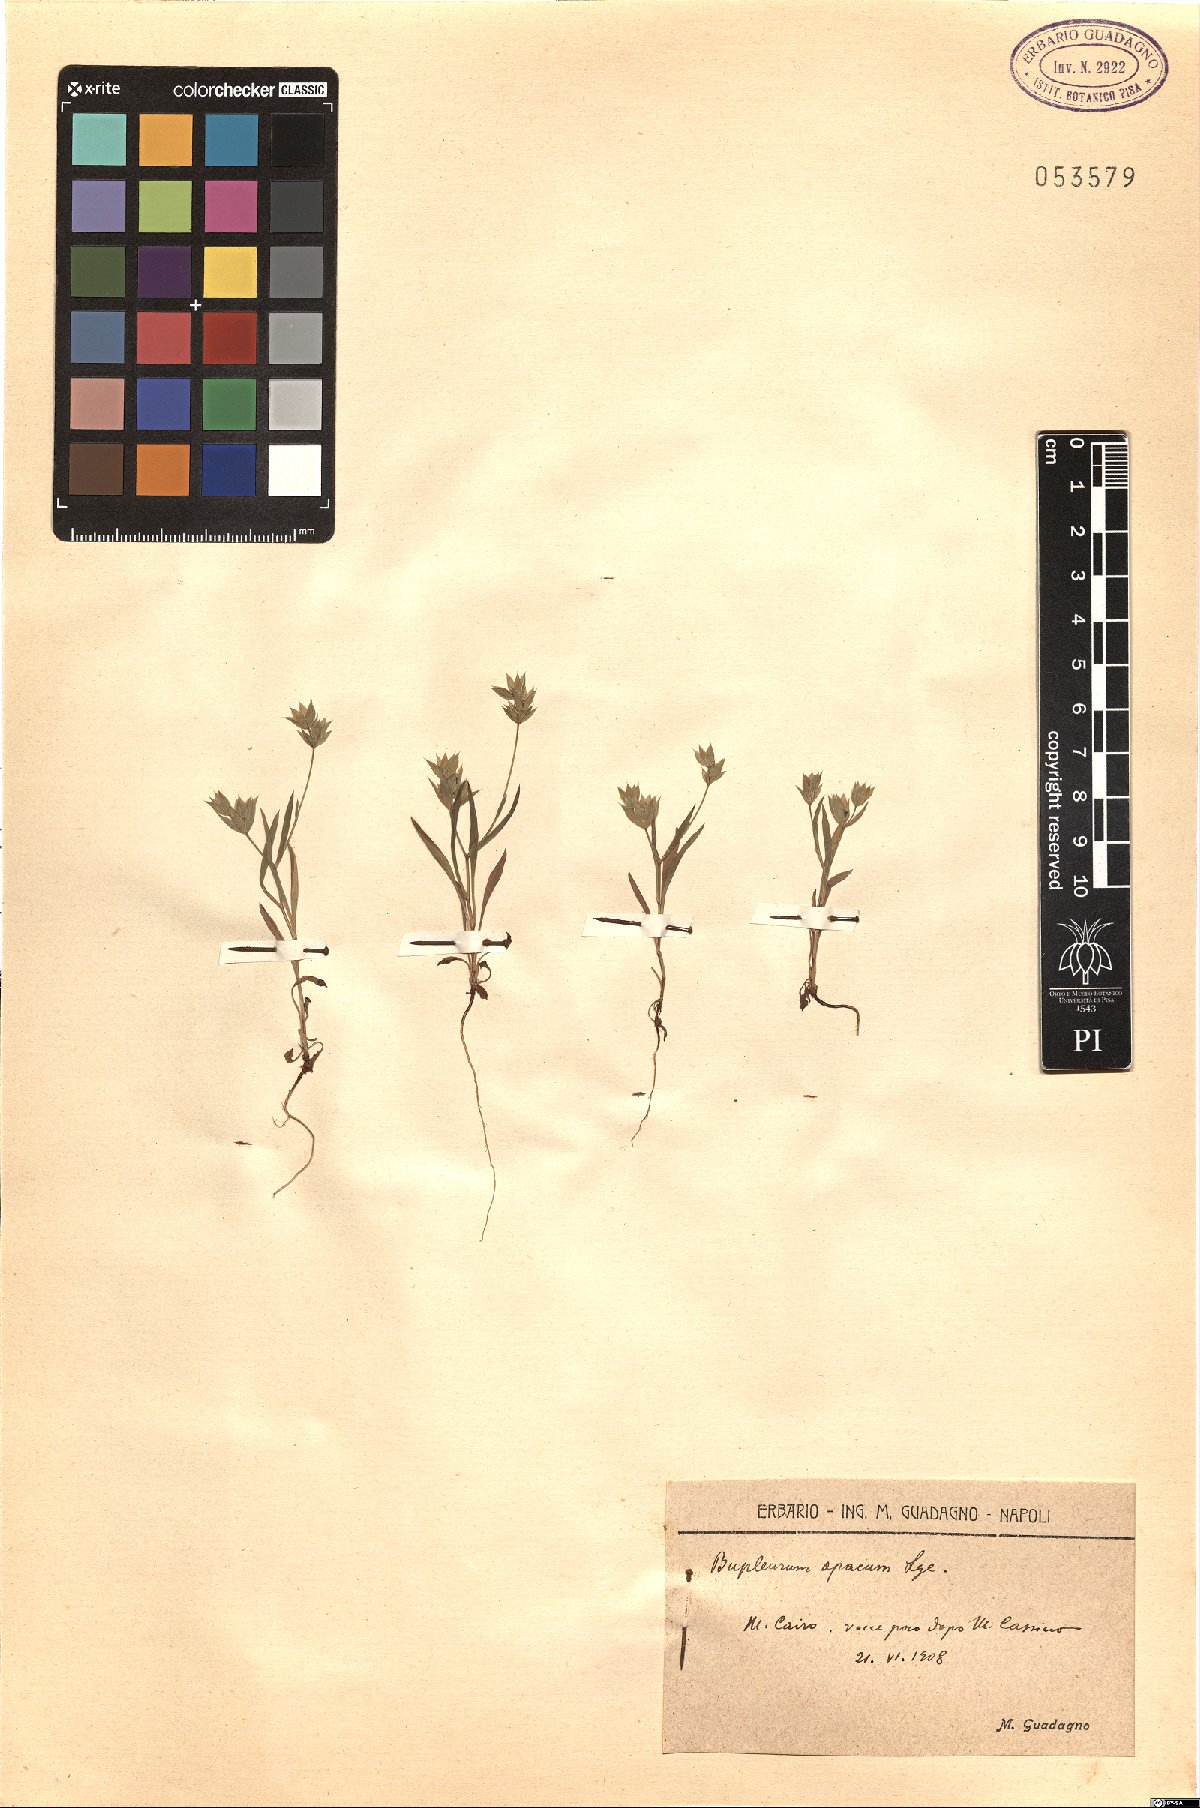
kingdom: Plantae
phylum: Tracheophyta
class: Magnoliopsida
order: Apiales
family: Apiaceae
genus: Bupleurum
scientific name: Bupleurum baldense
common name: Small hare's-ear
